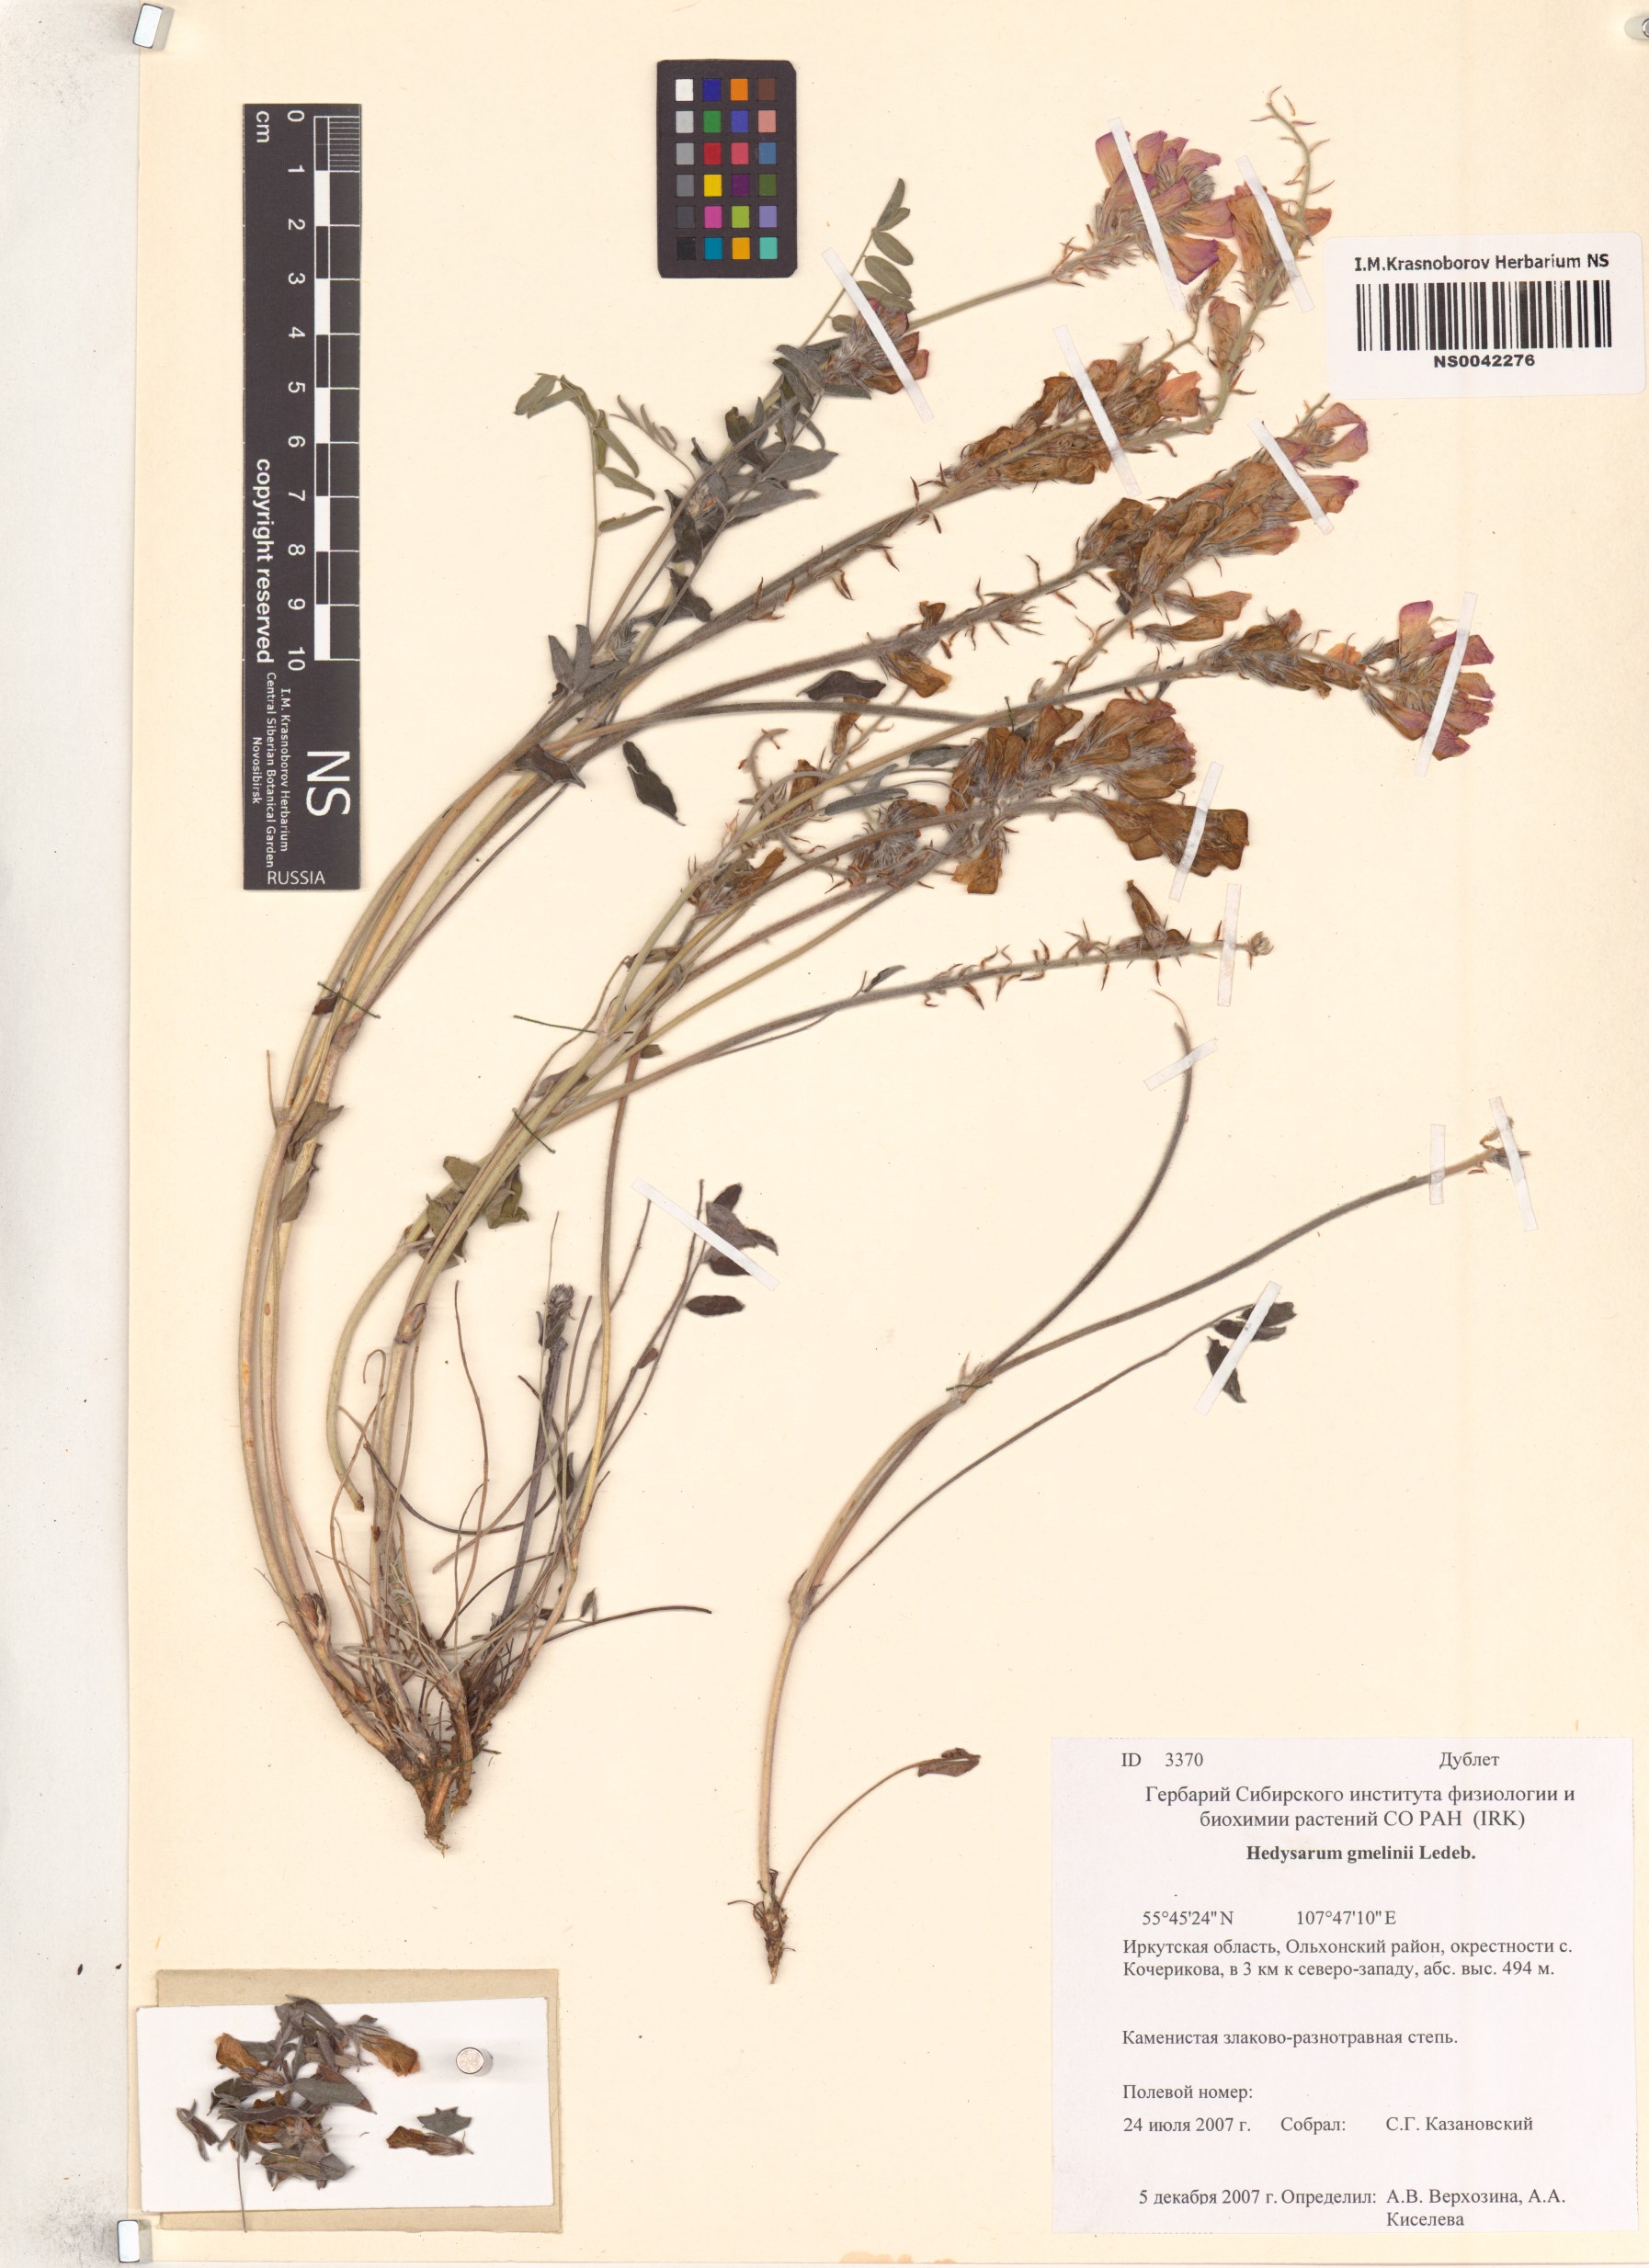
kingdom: Plantae
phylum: Tracheophyta
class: Magnoliopsida
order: Fabales
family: Fabaceae
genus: Hedysarum
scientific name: Hedysarum gmelinii
